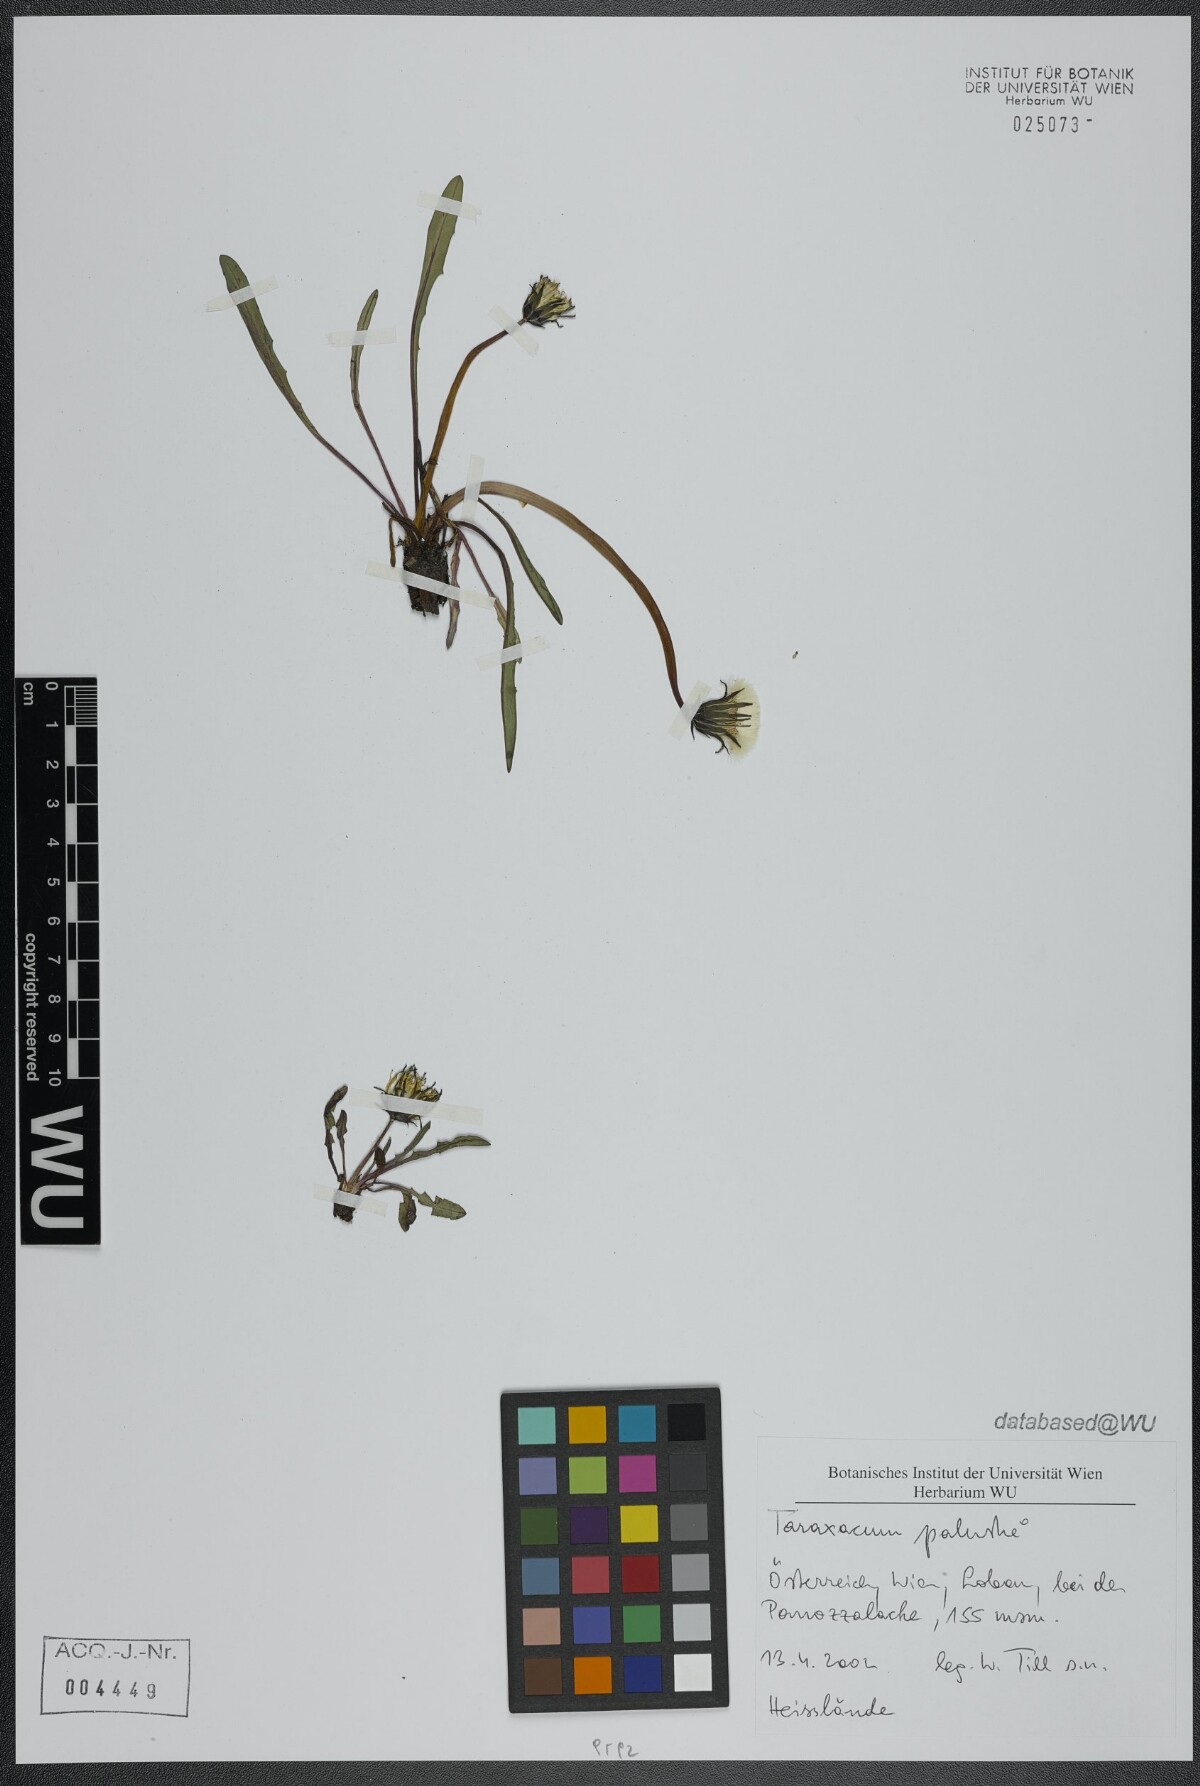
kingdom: Plantae
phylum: Tracheophyta
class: Magnoliopsida
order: Asterales
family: Asteraceae
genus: Taraxacum
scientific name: Taraxacum palustre
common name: Marsh dandelion
